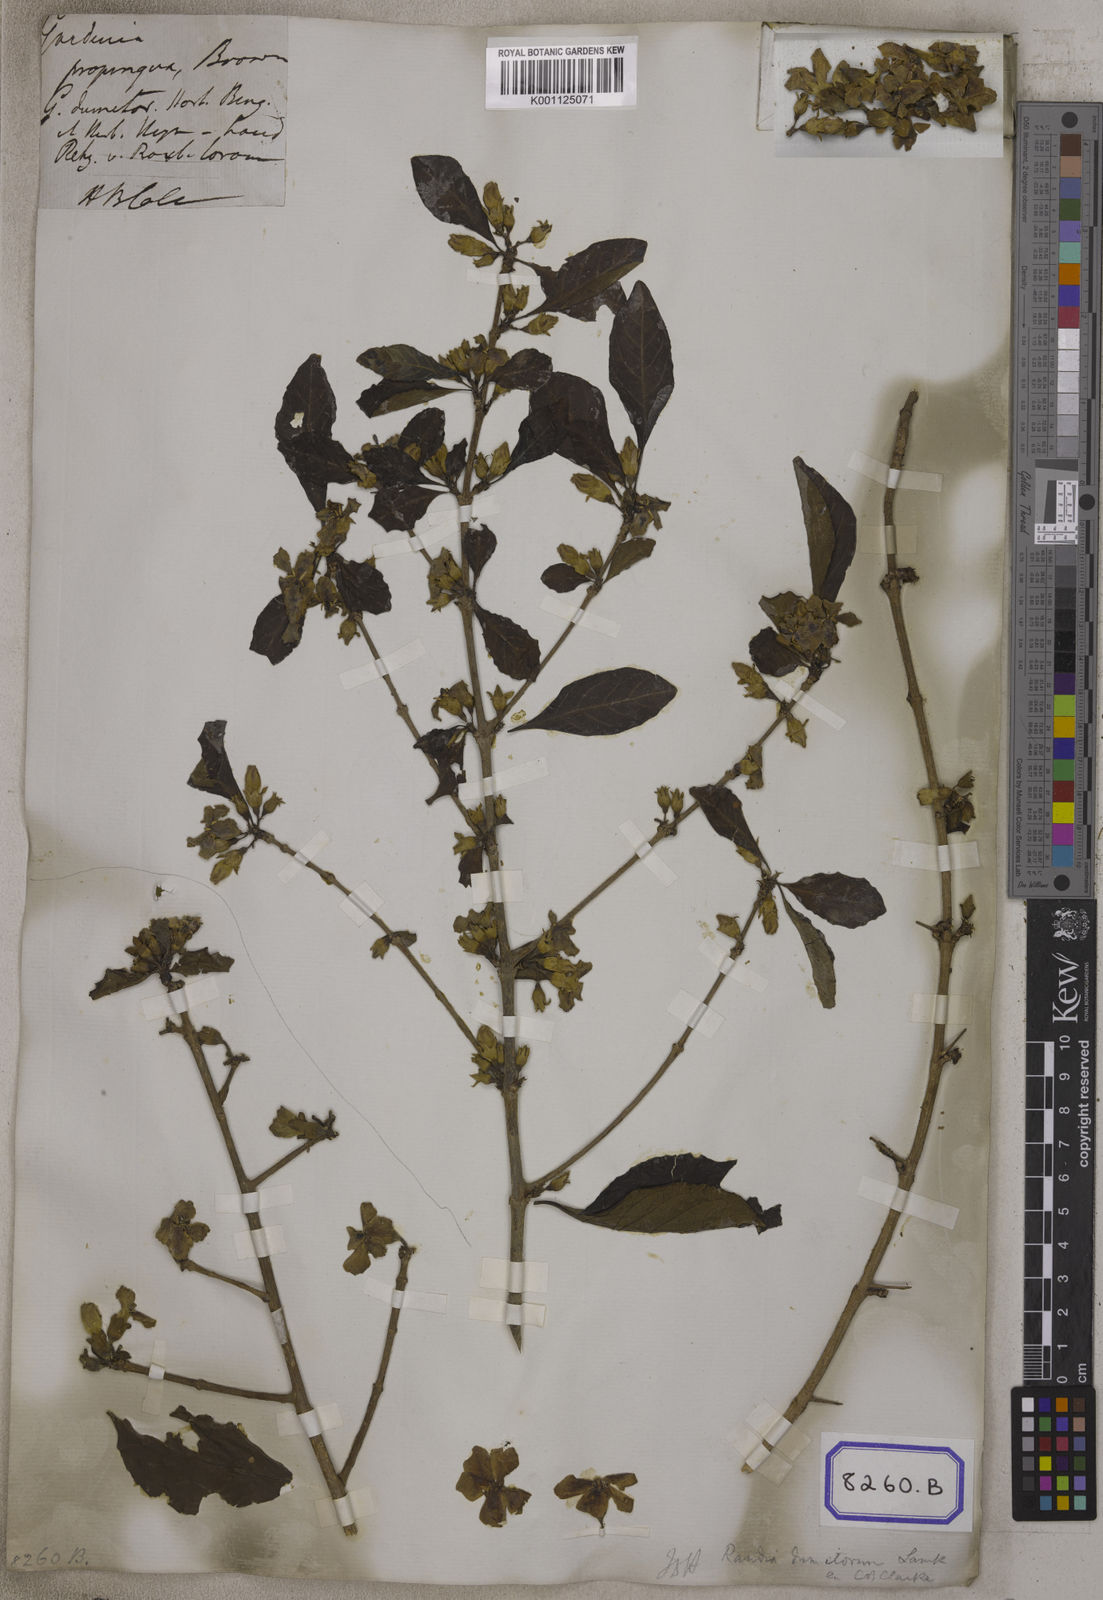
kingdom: Plantae
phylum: Tracheophyta
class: Magnoliopsida
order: Gentianales
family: Rubiaceae
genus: Gardenia
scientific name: Gardenia
